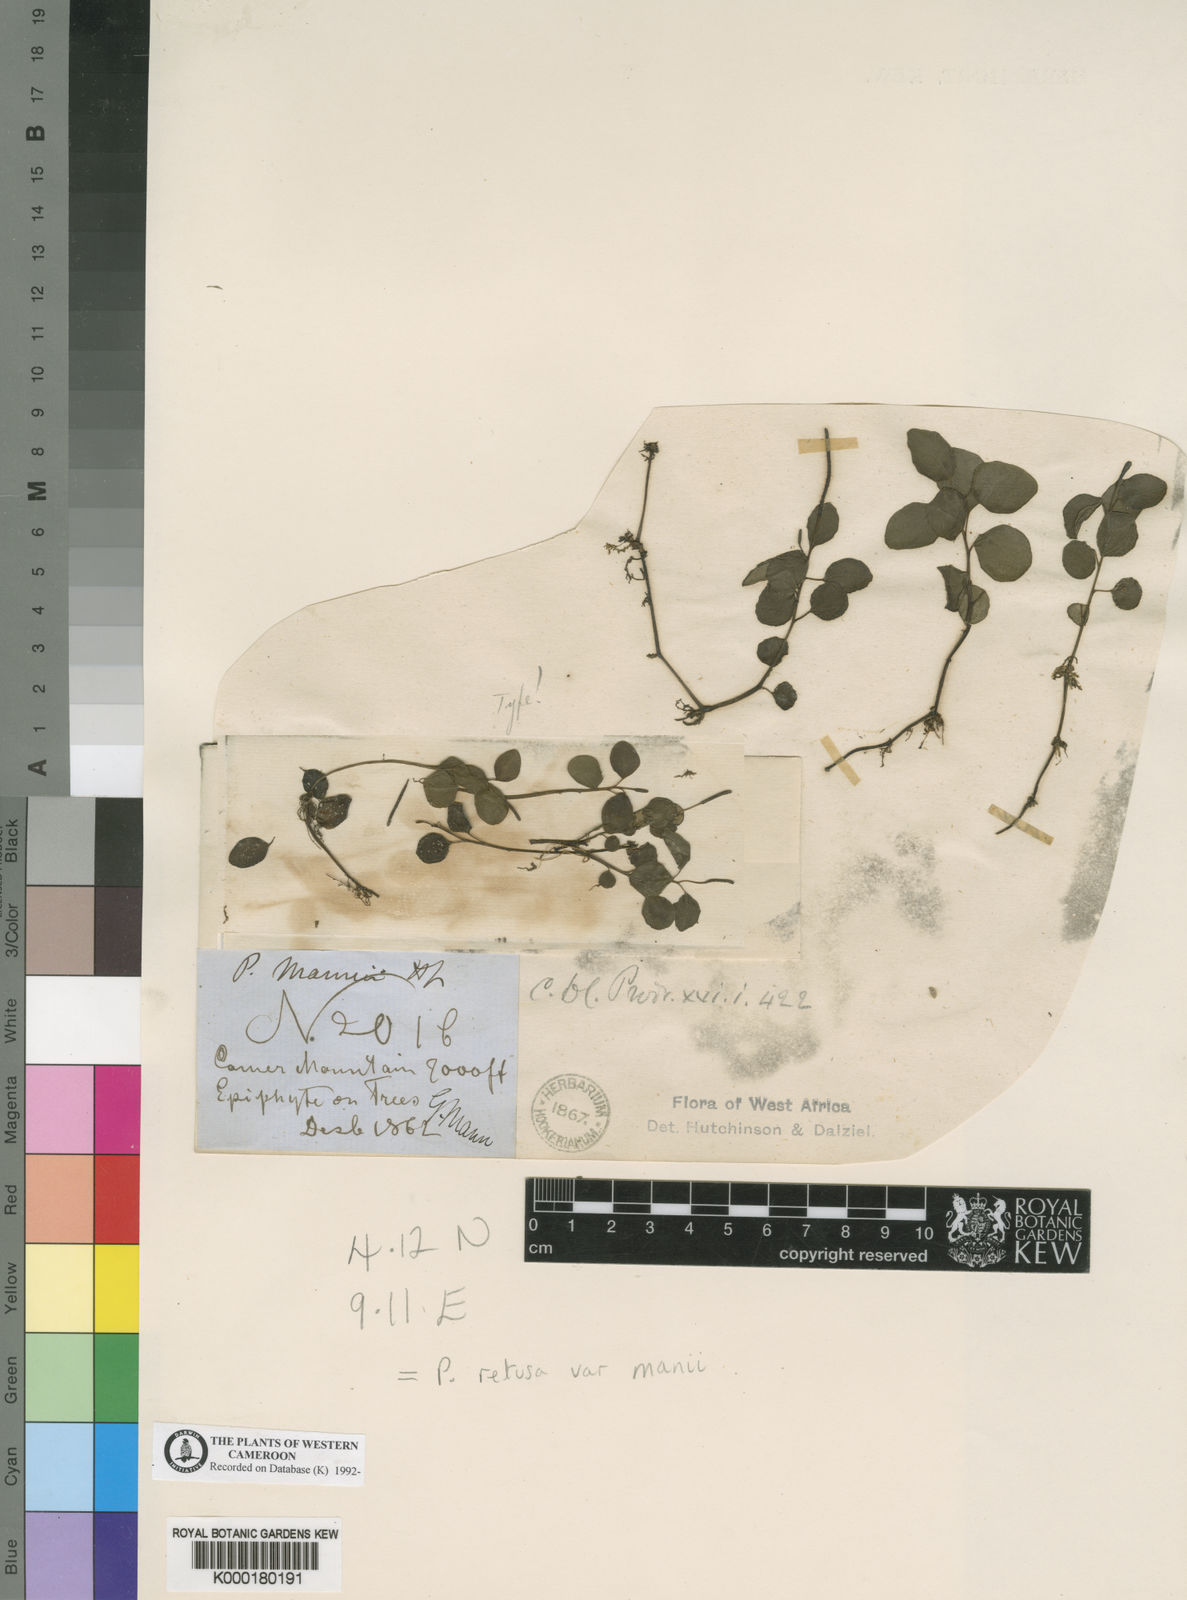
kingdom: Plantae
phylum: Tracheophyta
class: Magnoliopsida
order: Piperales
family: Piperaceae
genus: Peperomia
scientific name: Peperomia retusa
